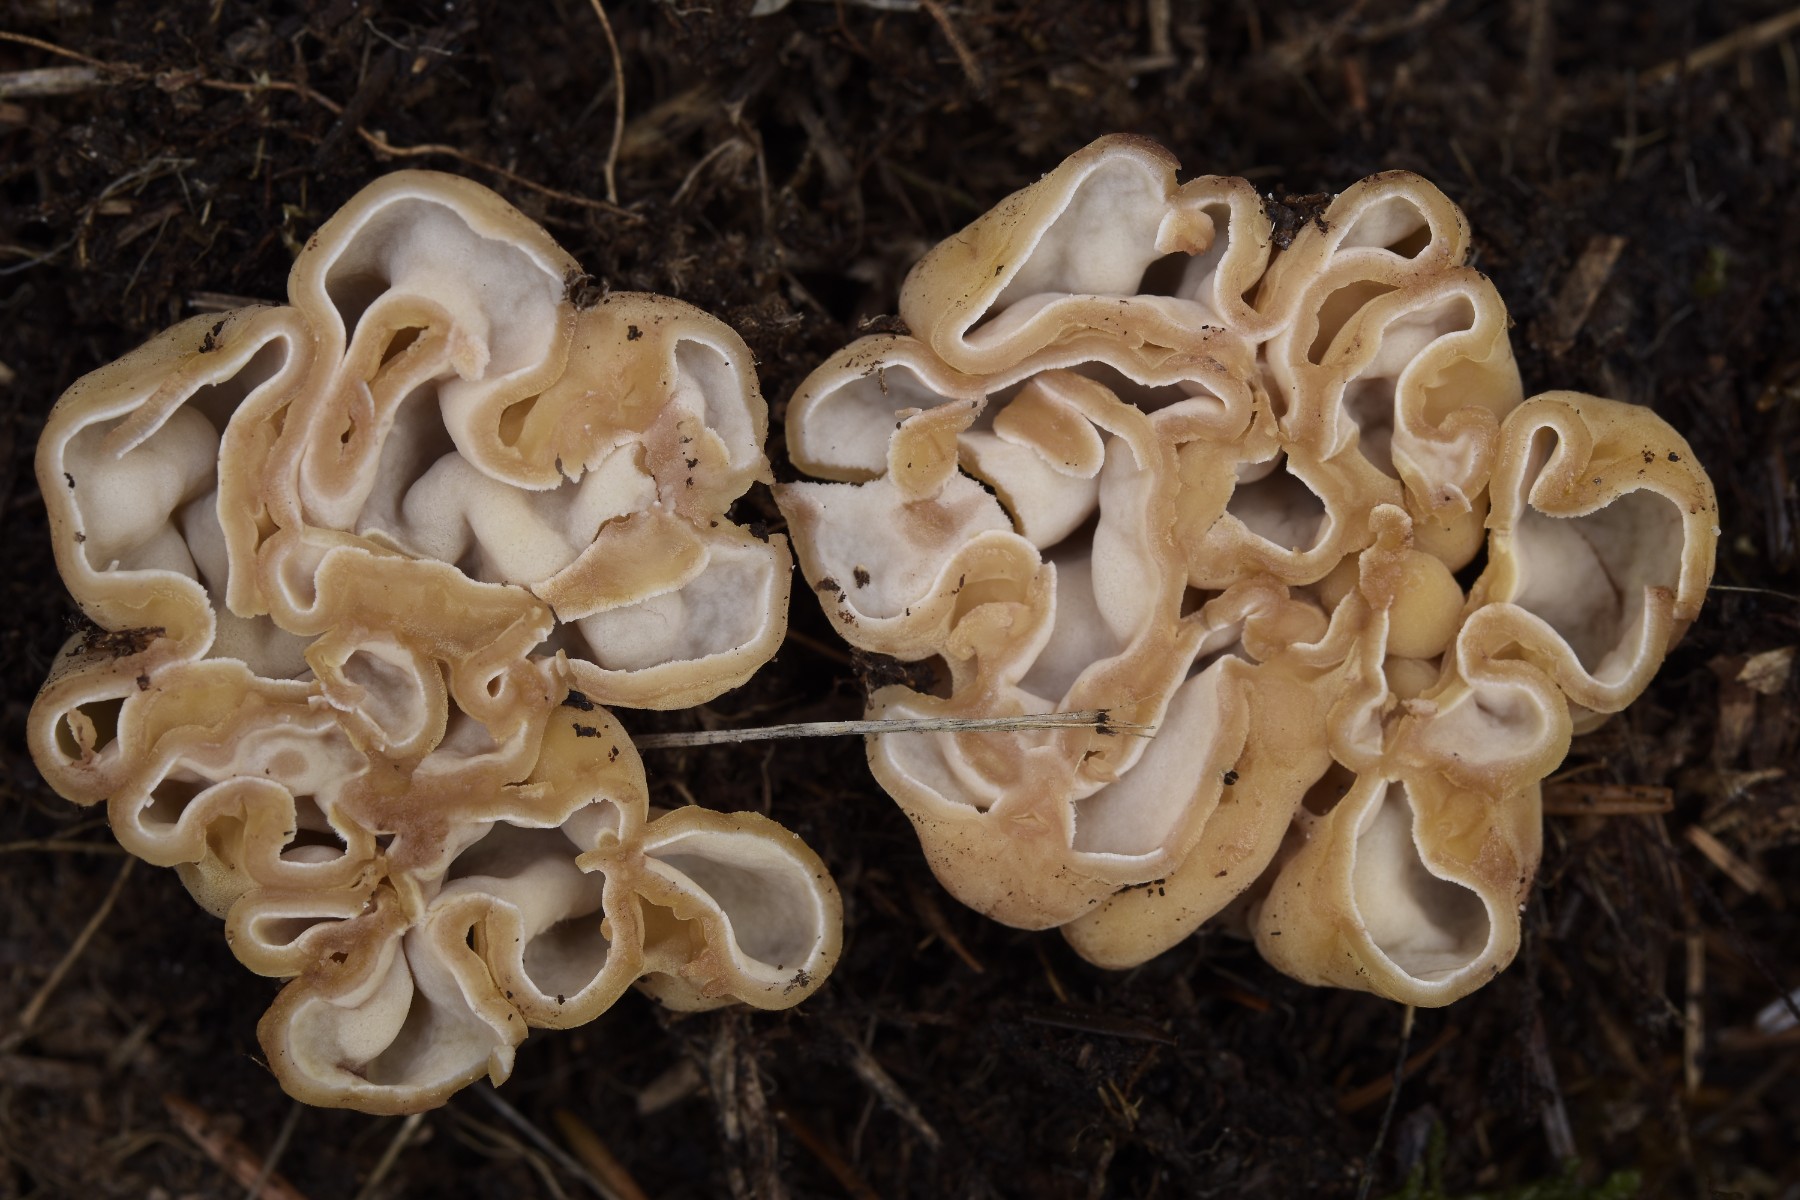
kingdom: Fungi
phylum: Ascomycota
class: Pezizomycetes
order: Pezizales
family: Discinaceae
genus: Hydnotrya
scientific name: Hydnotrya cubispora
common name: kassesporet foldtrøffel
